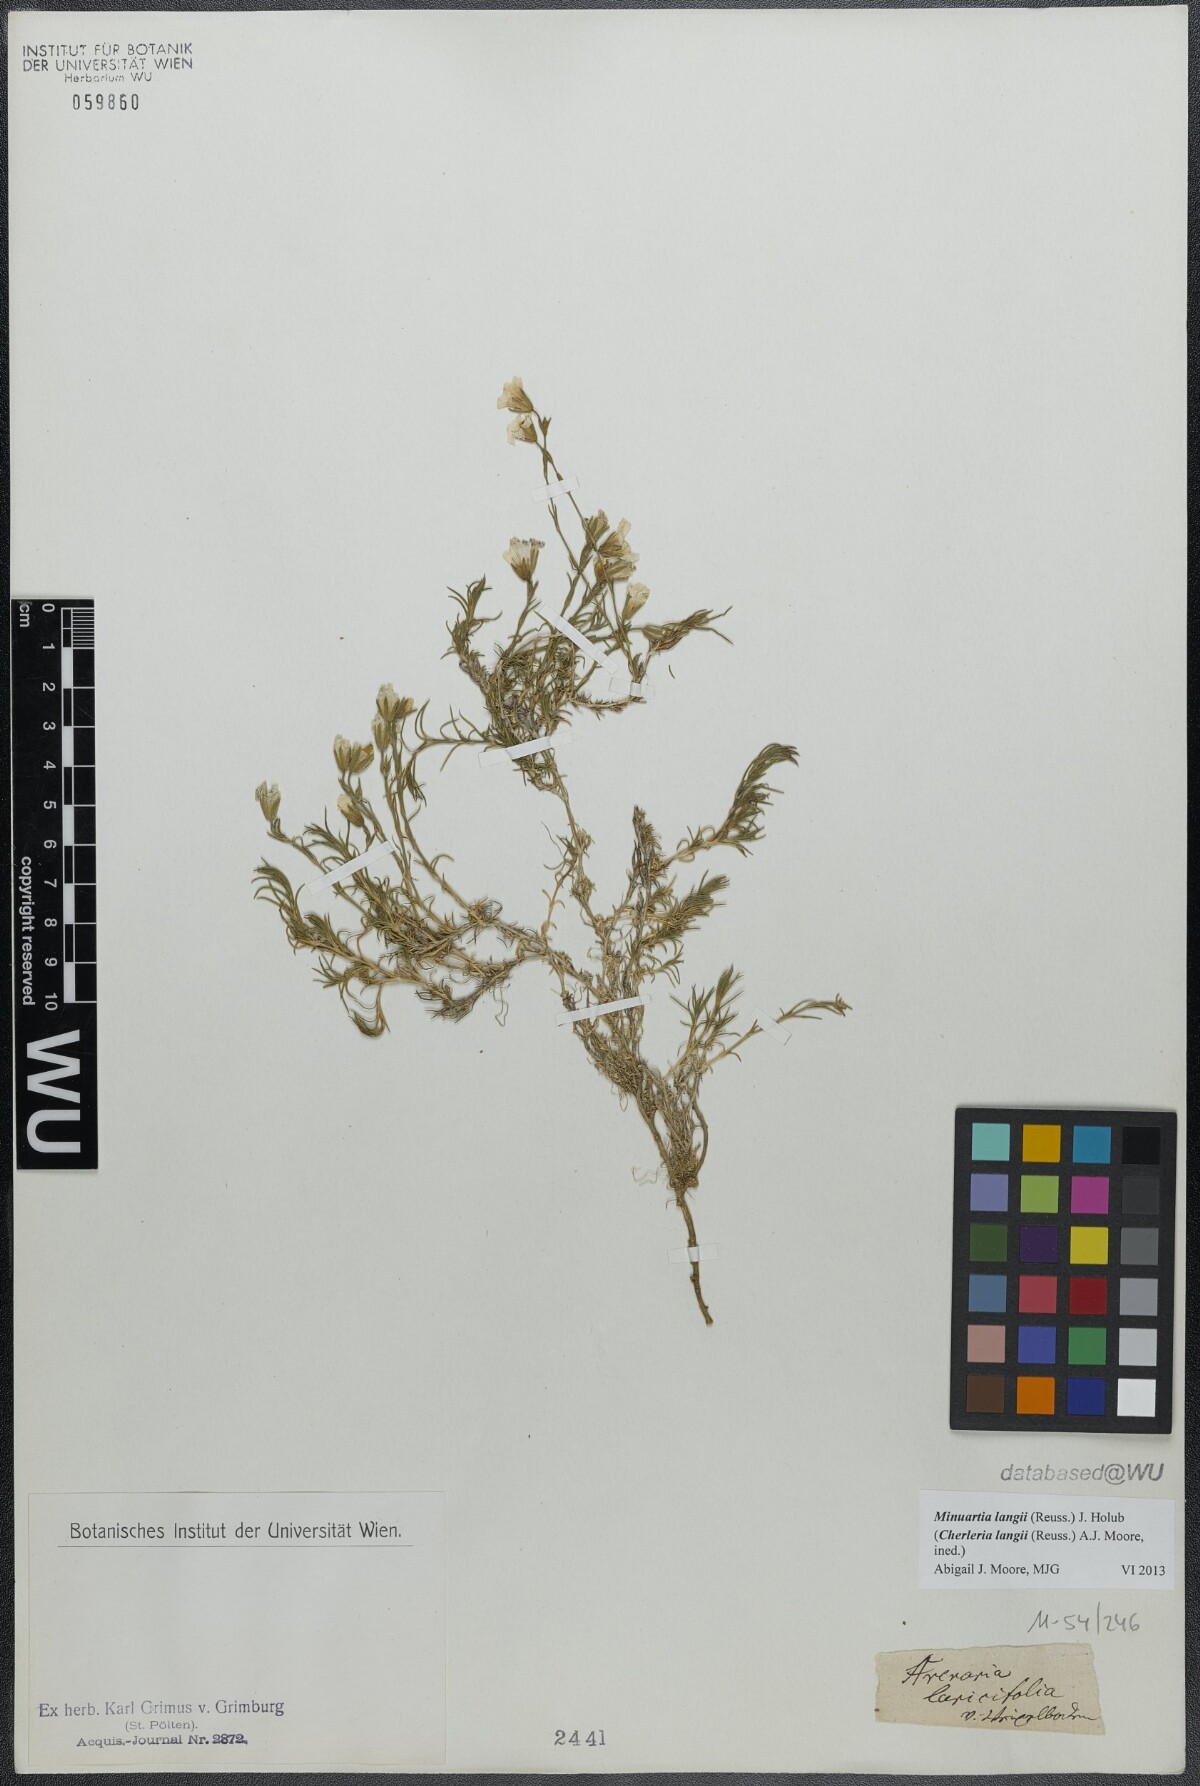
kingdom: Plantae
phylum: Tracheophyta
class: Magnoliopsida
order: Caryophyllales
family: Caryophyllaceae
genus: Cherleria
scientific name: Cherleria langii
